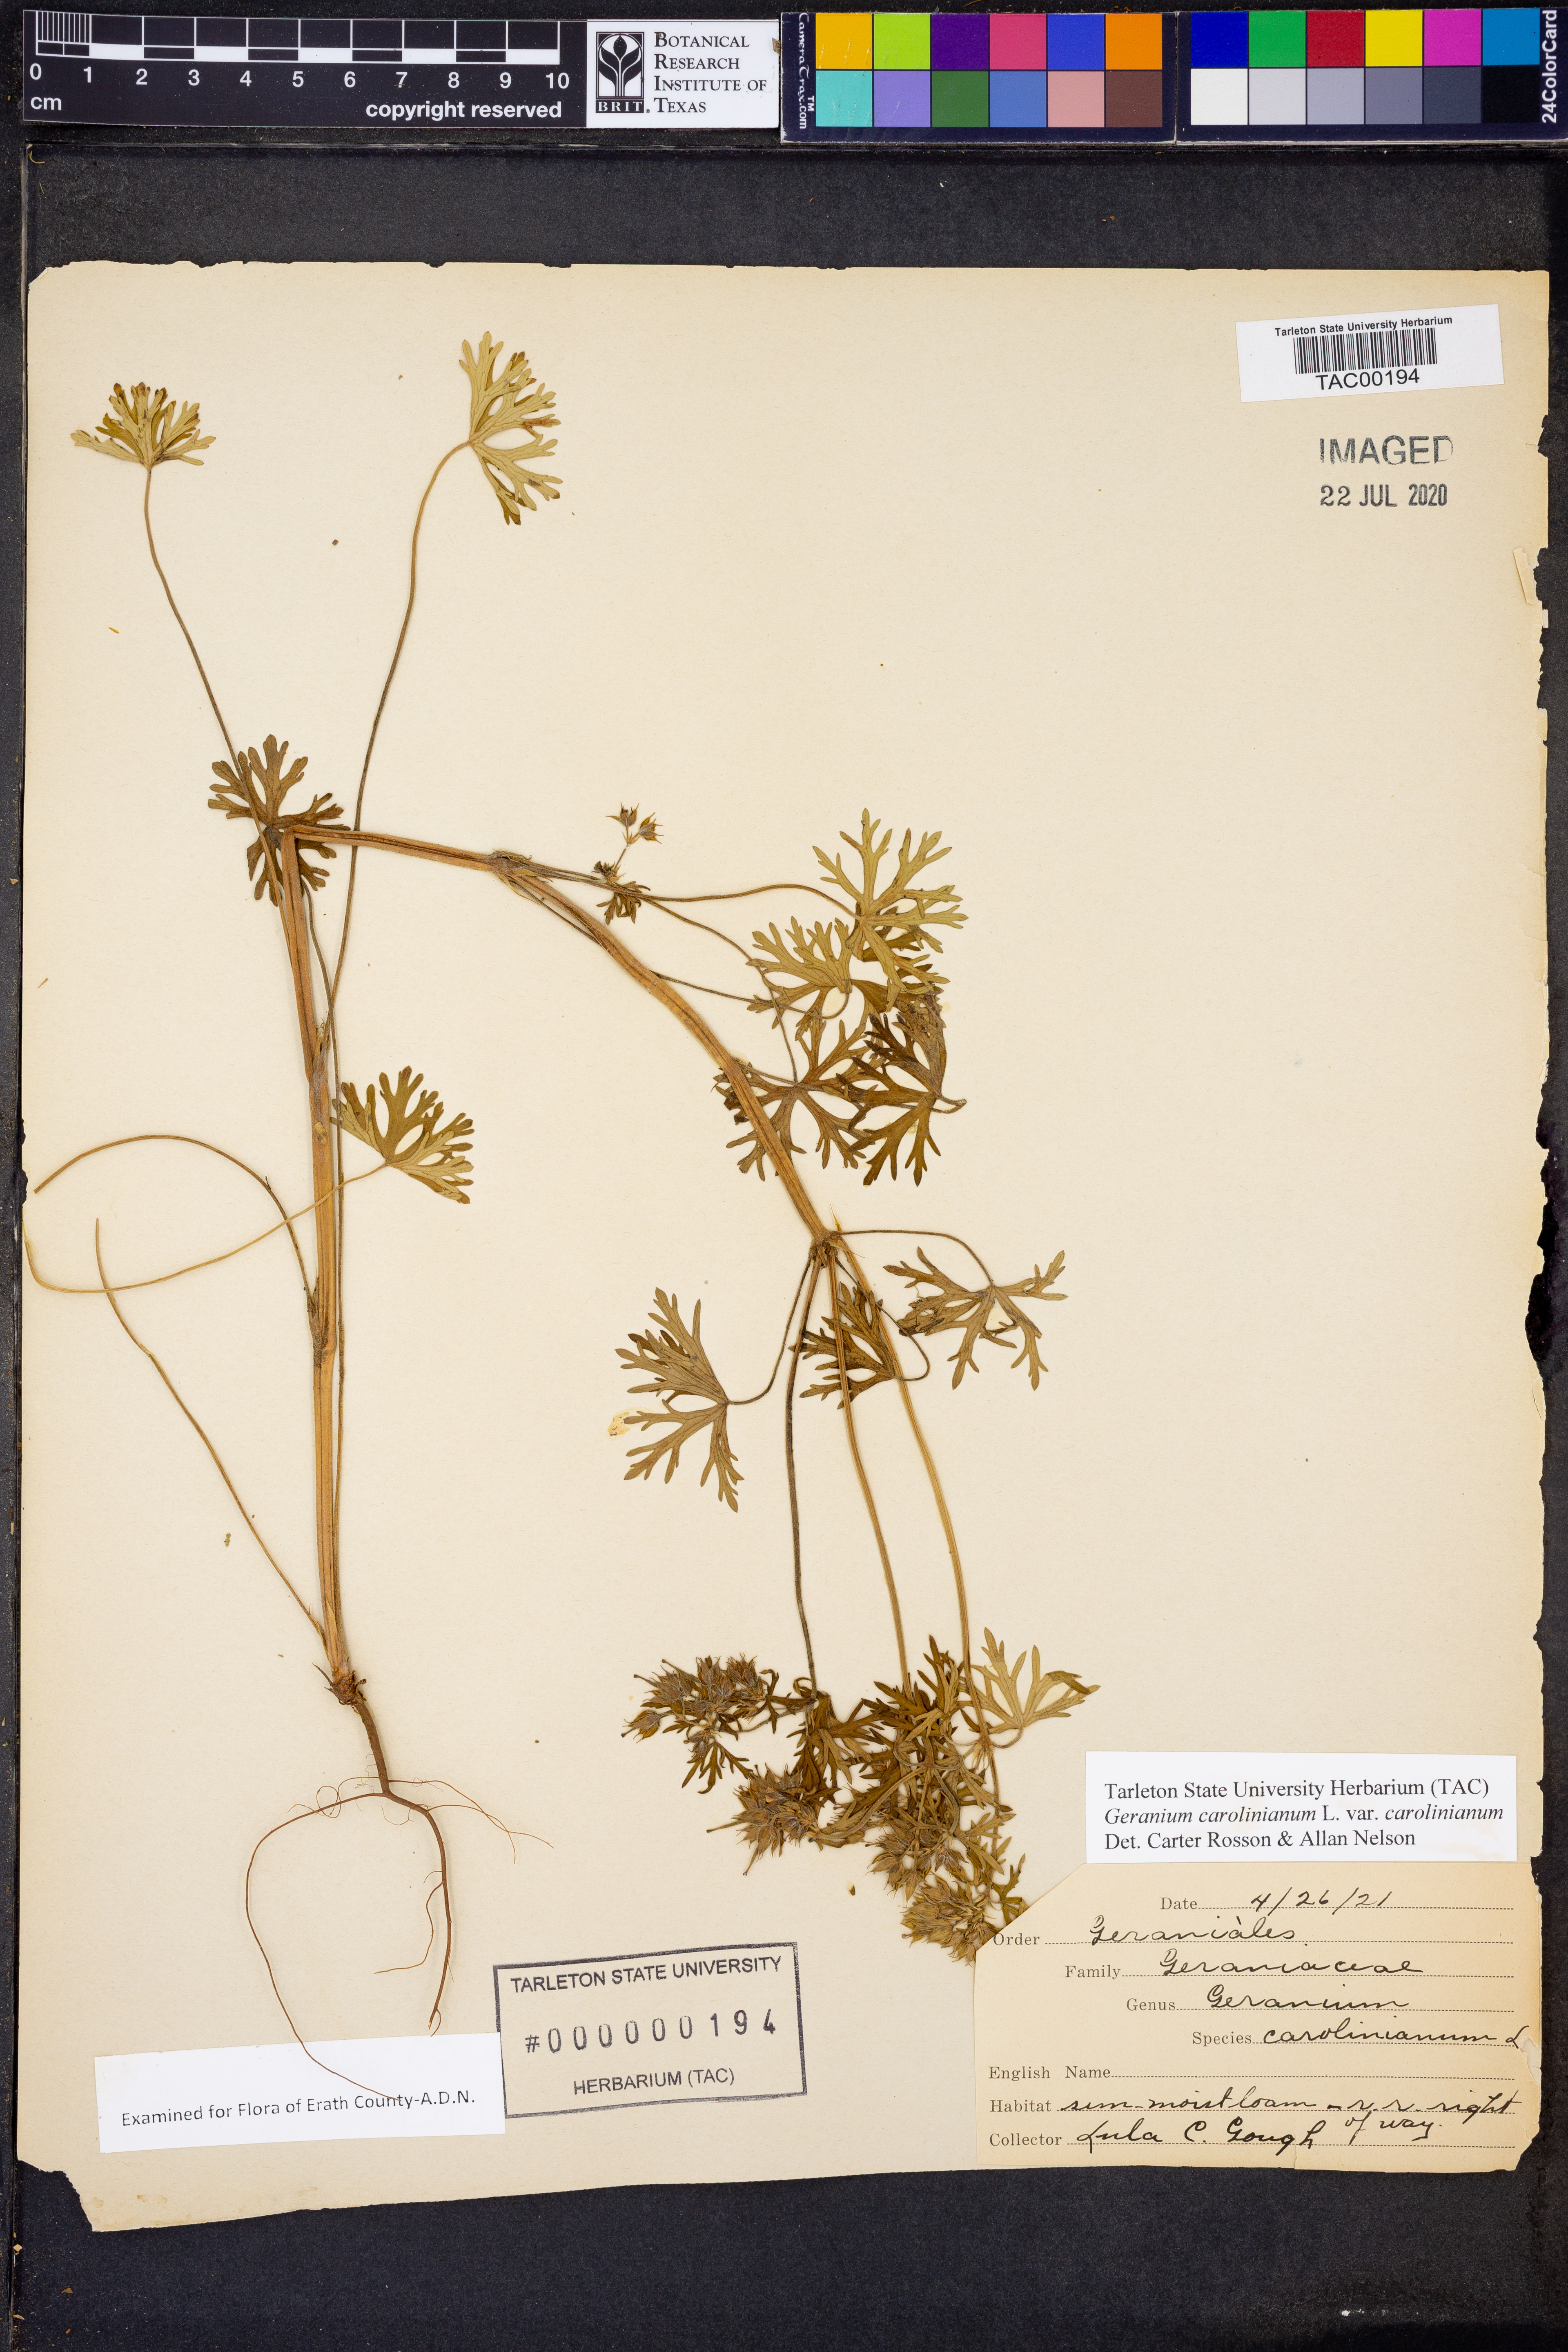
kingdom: Plantae
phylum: Tracheophyta
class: Magnoliopsida
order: Geraniales
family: Geraniaceae
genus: Geranium
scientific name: Geranium carolinianum
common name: Carolina crane's-bill
